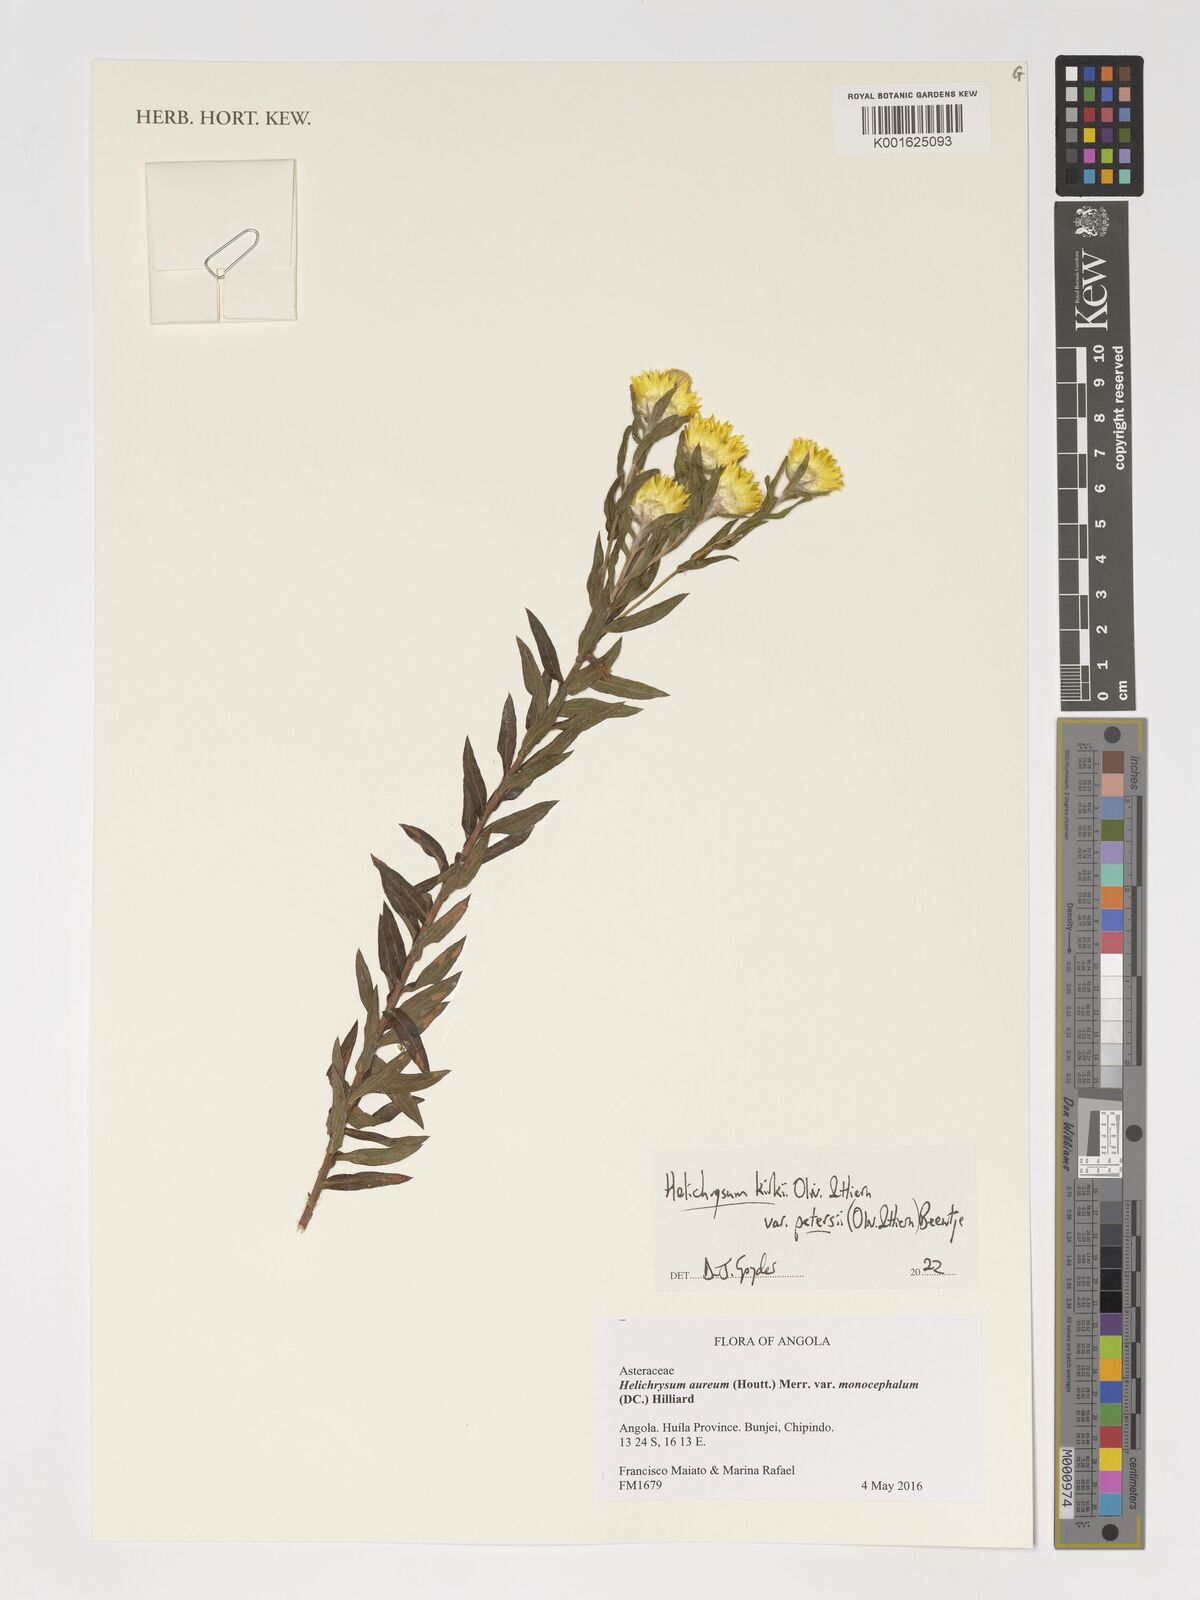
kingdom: Plantae
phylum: Tracheophyta
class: Magnoliopsida
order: Asterales
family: Asteraceae
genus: Helichrysum
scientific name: Helichrysum kirkii
